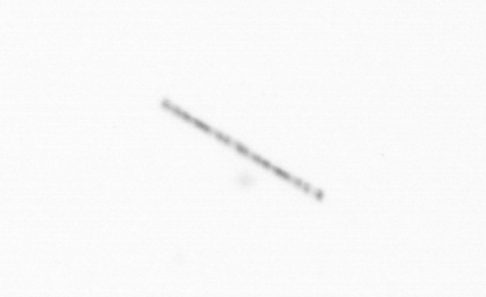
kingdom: Chromista
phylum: Ochrophyta
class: Bacillariophyceae
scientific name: Bacillariophyceae
